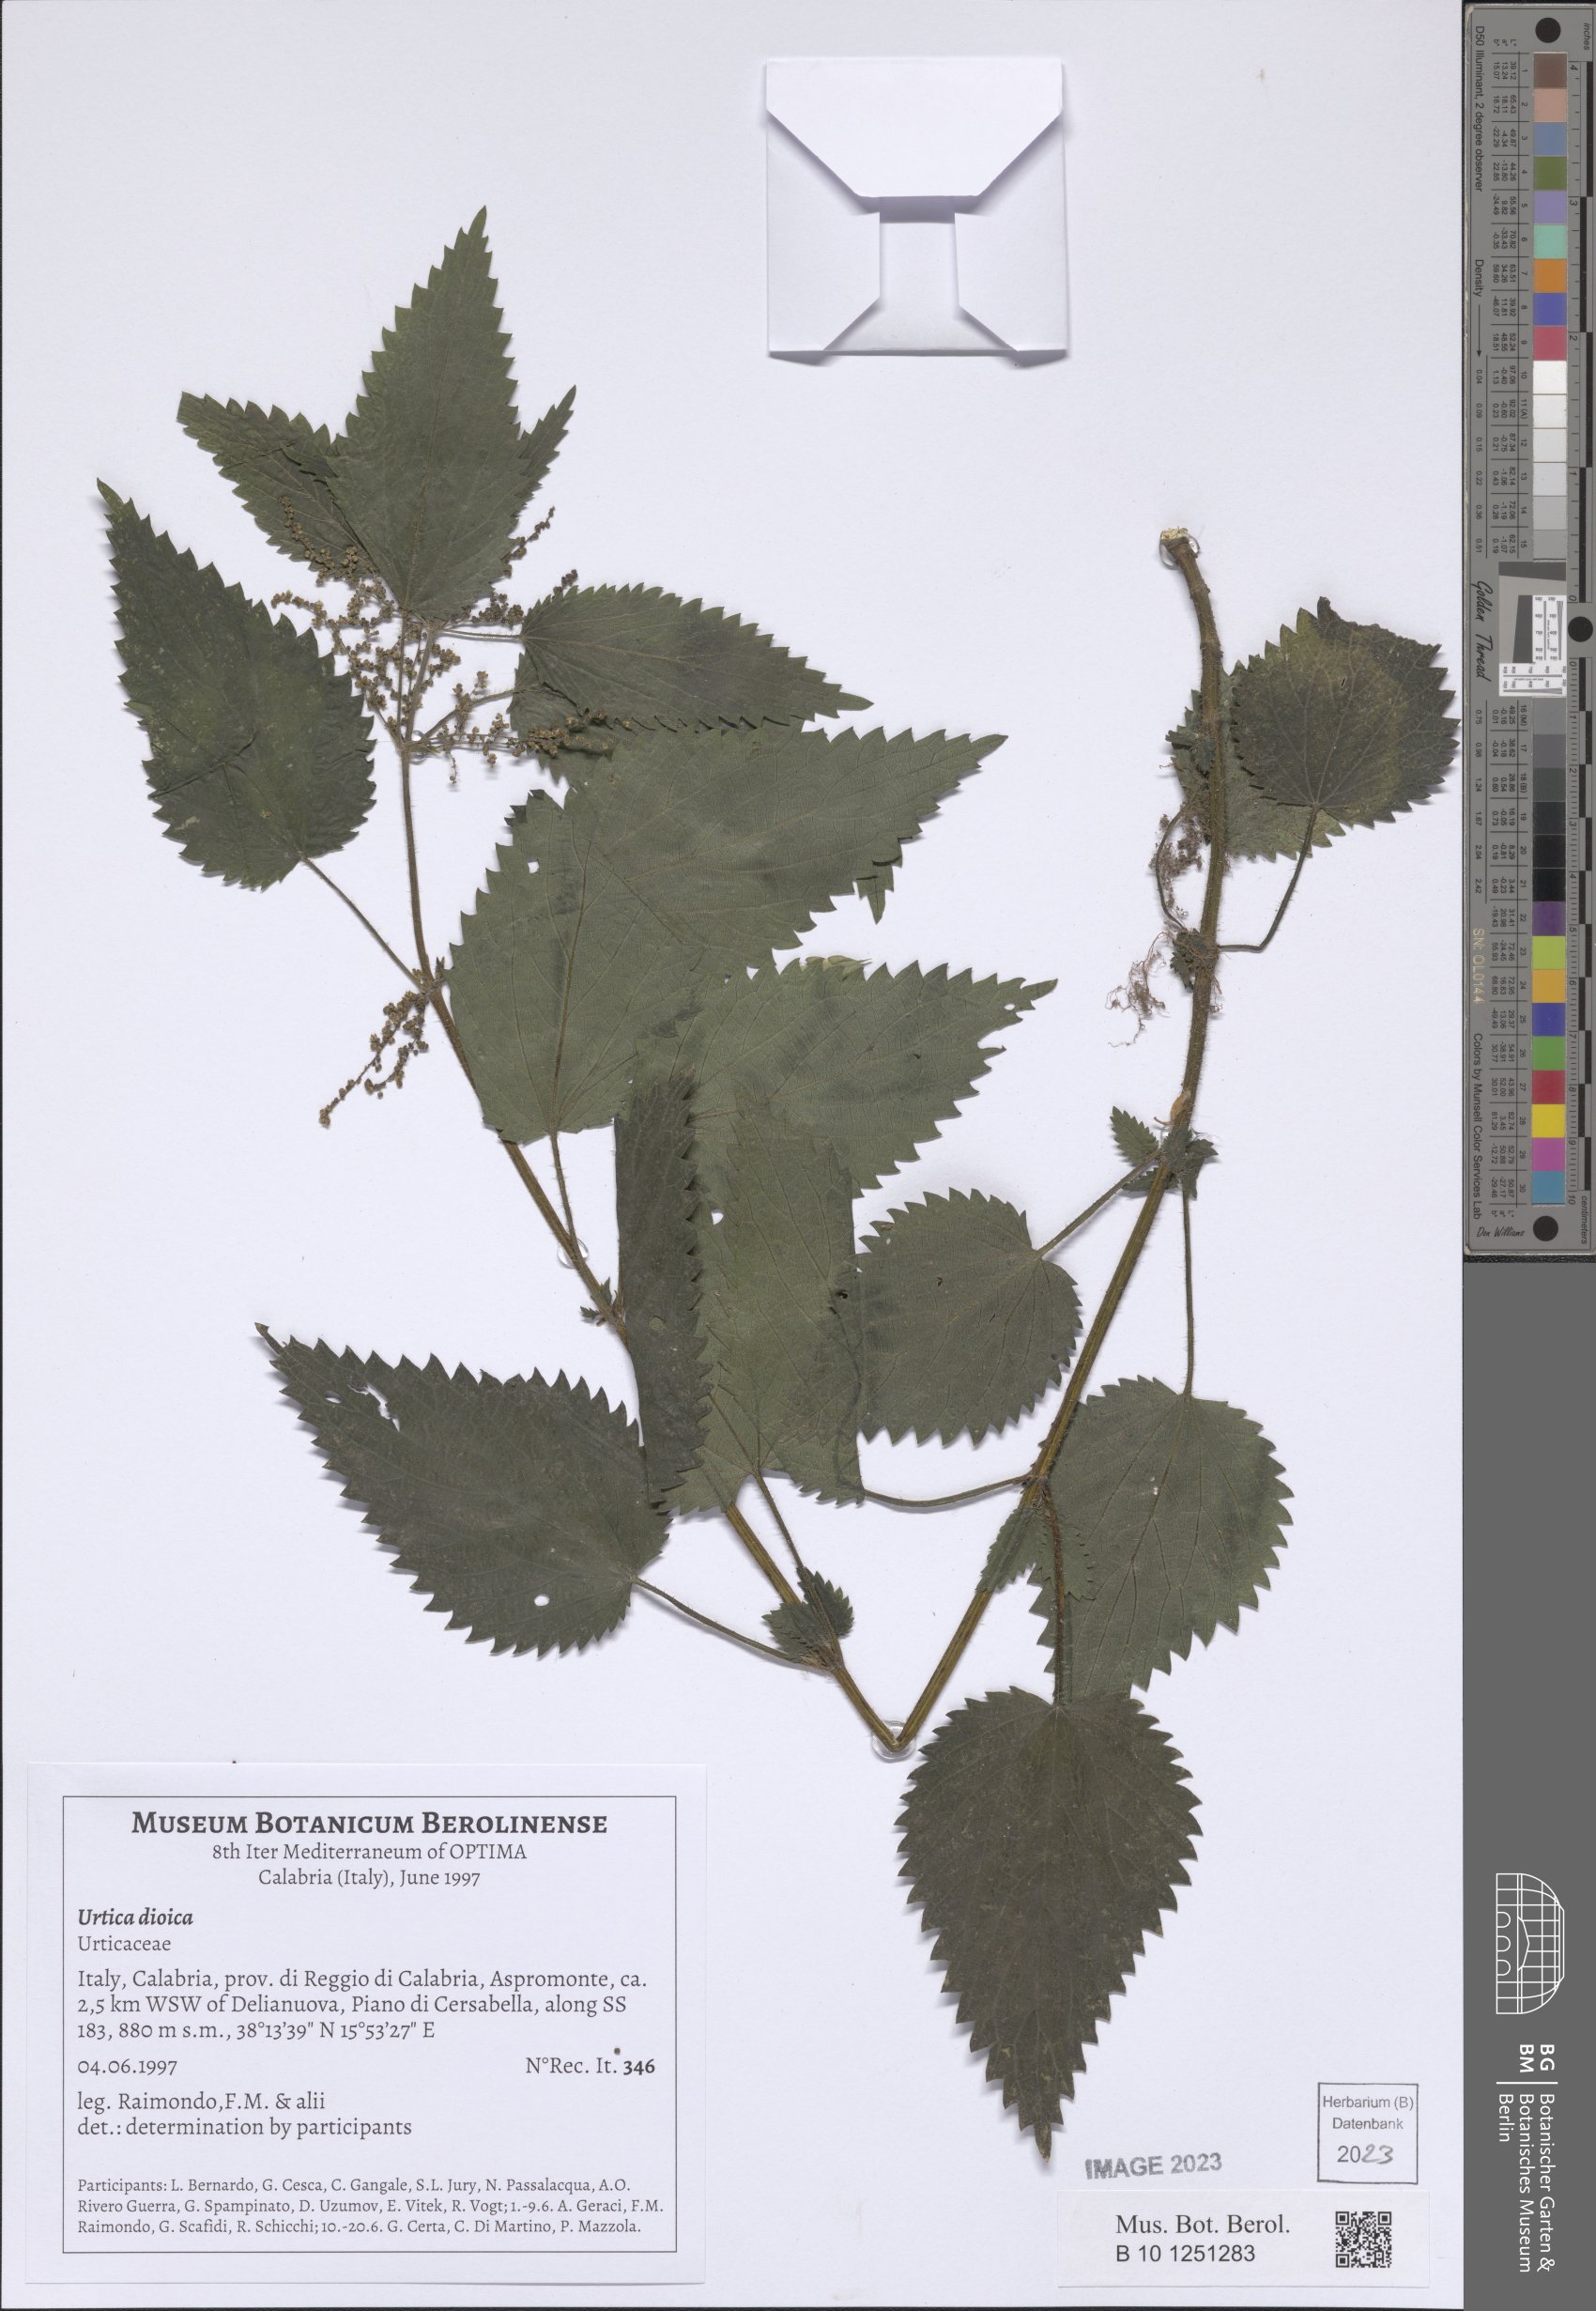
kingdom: Plantae
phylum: Tracheophyta
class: Magnoliopsida
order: Rosales
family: Urticaceae
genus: Urtica
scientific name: Urtica dioica
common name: Common nettle
